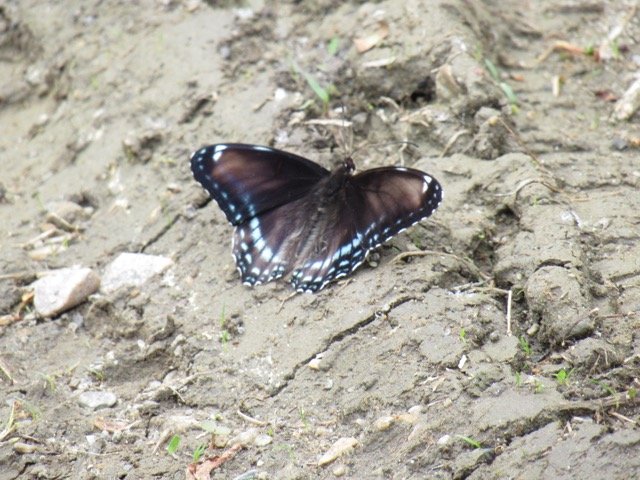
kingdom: Animalia
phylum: Arthropoda
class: Insecta
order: Lepidoptera
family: Nymphalidae
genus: Limenitis
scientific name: Limenitis
